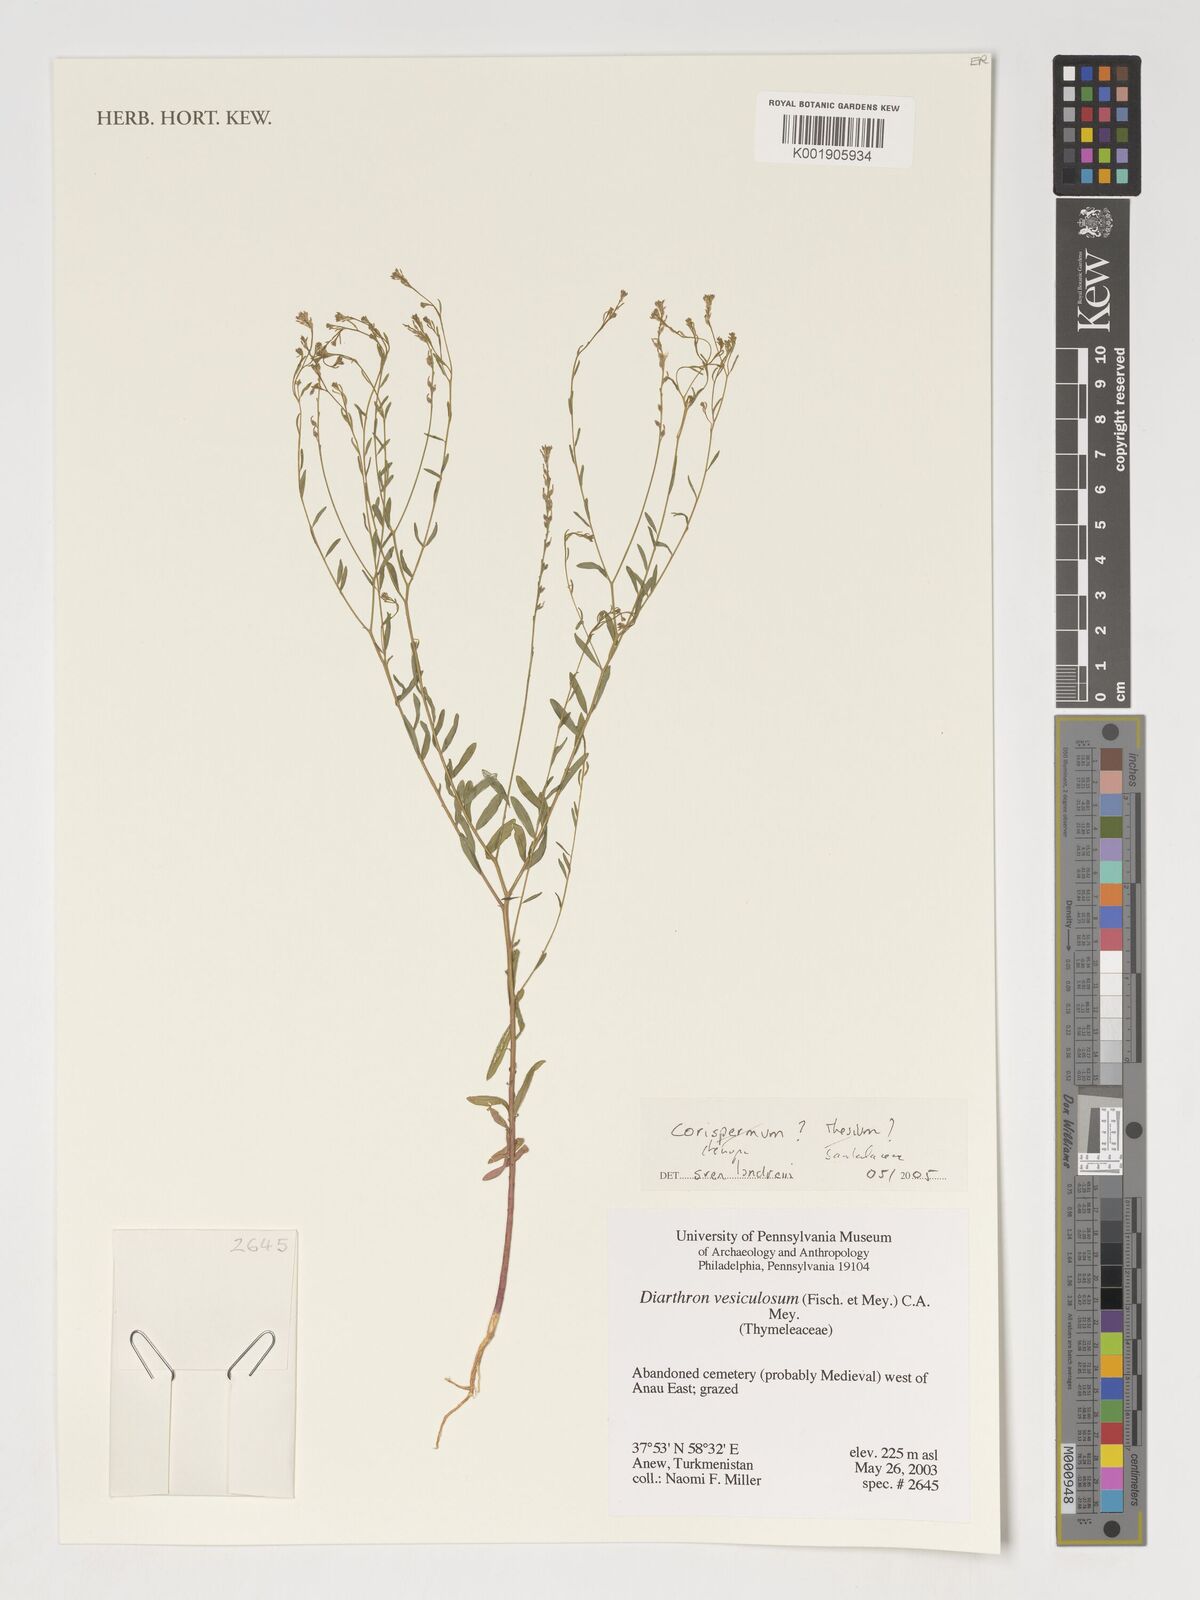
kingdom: Plantae
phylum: Tracheophyta
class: Magnoliopsida
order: Malvales
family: Thymelaeaceae
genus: Diarthron
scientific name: Diarthron vesiculosum
